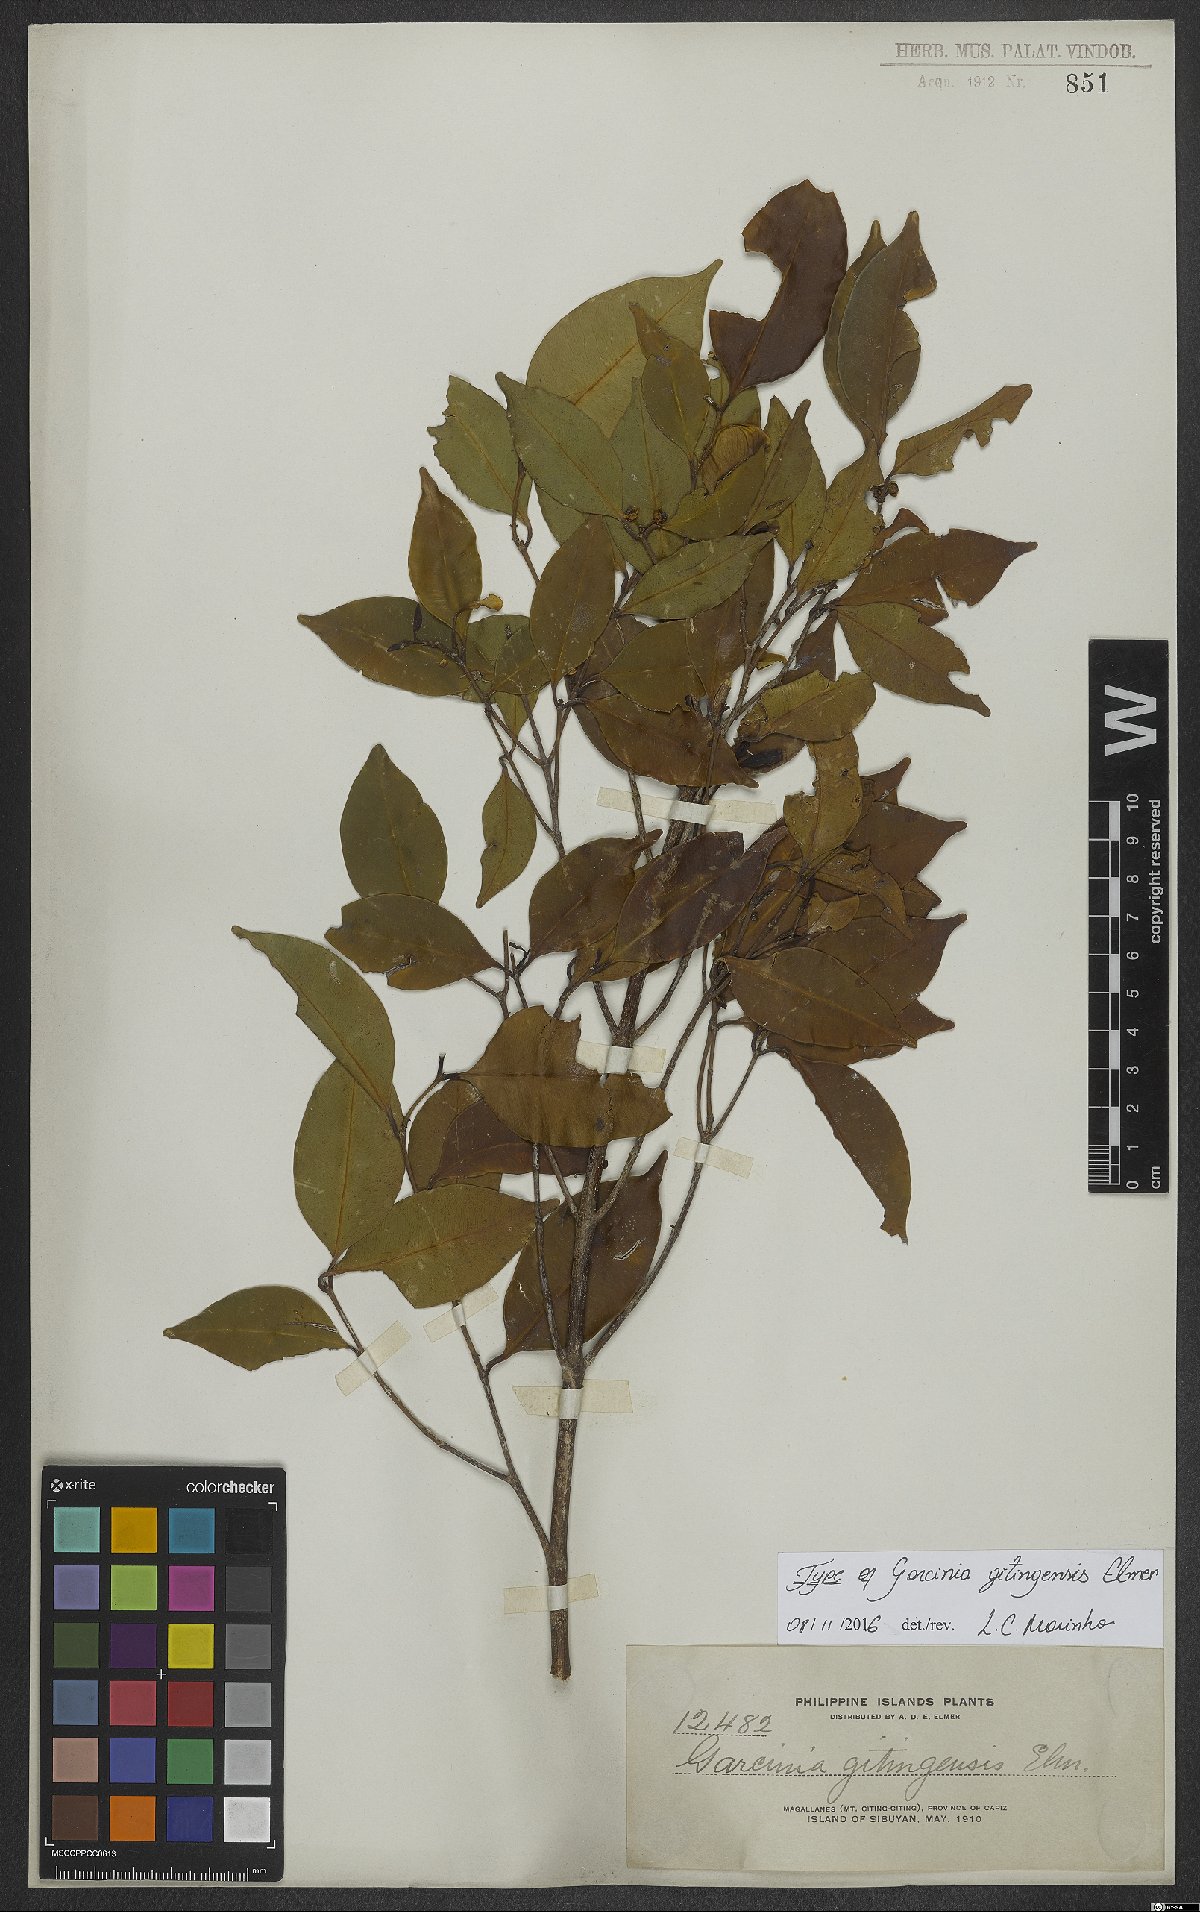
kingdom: Plantae
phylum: Tracheophyta
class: Magnoliopsida
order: Malpighiales
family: Clusiaceae
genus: Garcinia
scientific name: Garcinia brevirostris
